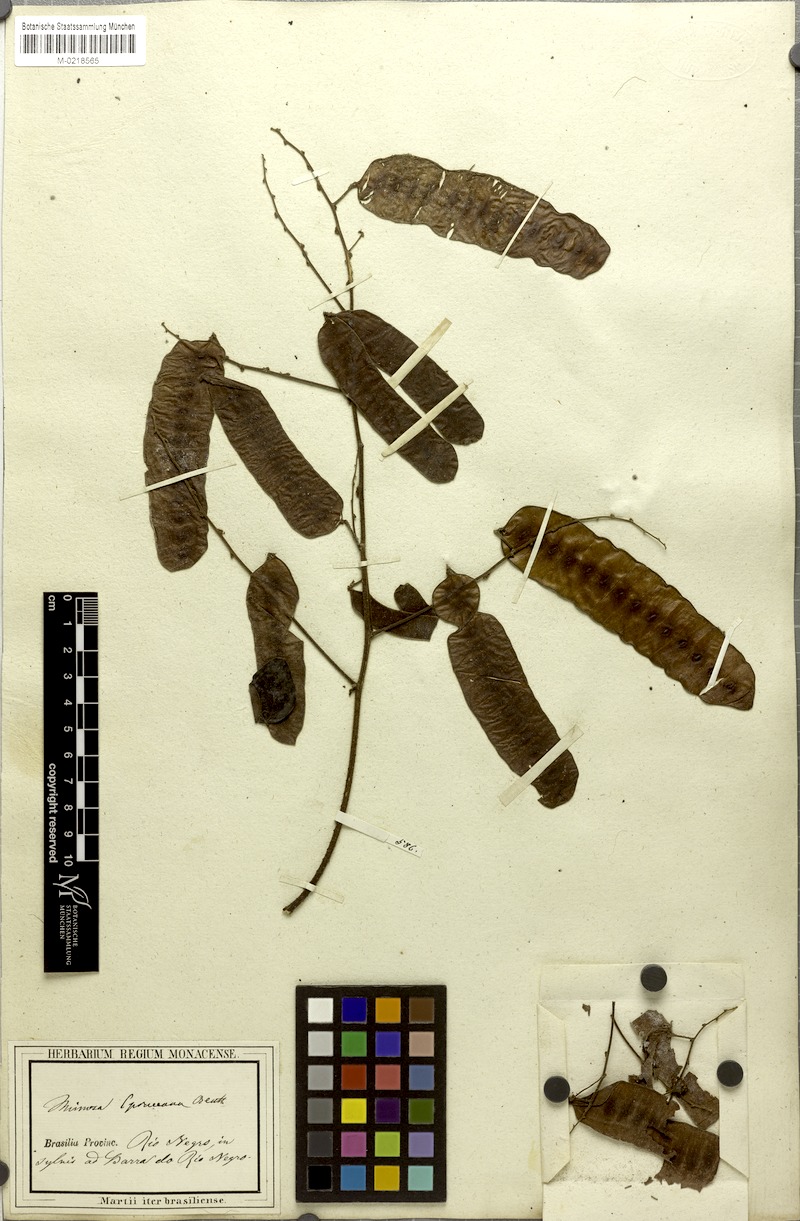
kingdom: Plantae
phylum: Tracheophyta
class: Magnoliopsida
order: Fabales
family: Fabaceae
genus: Mimosa
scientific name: Mimosa guilandinae
